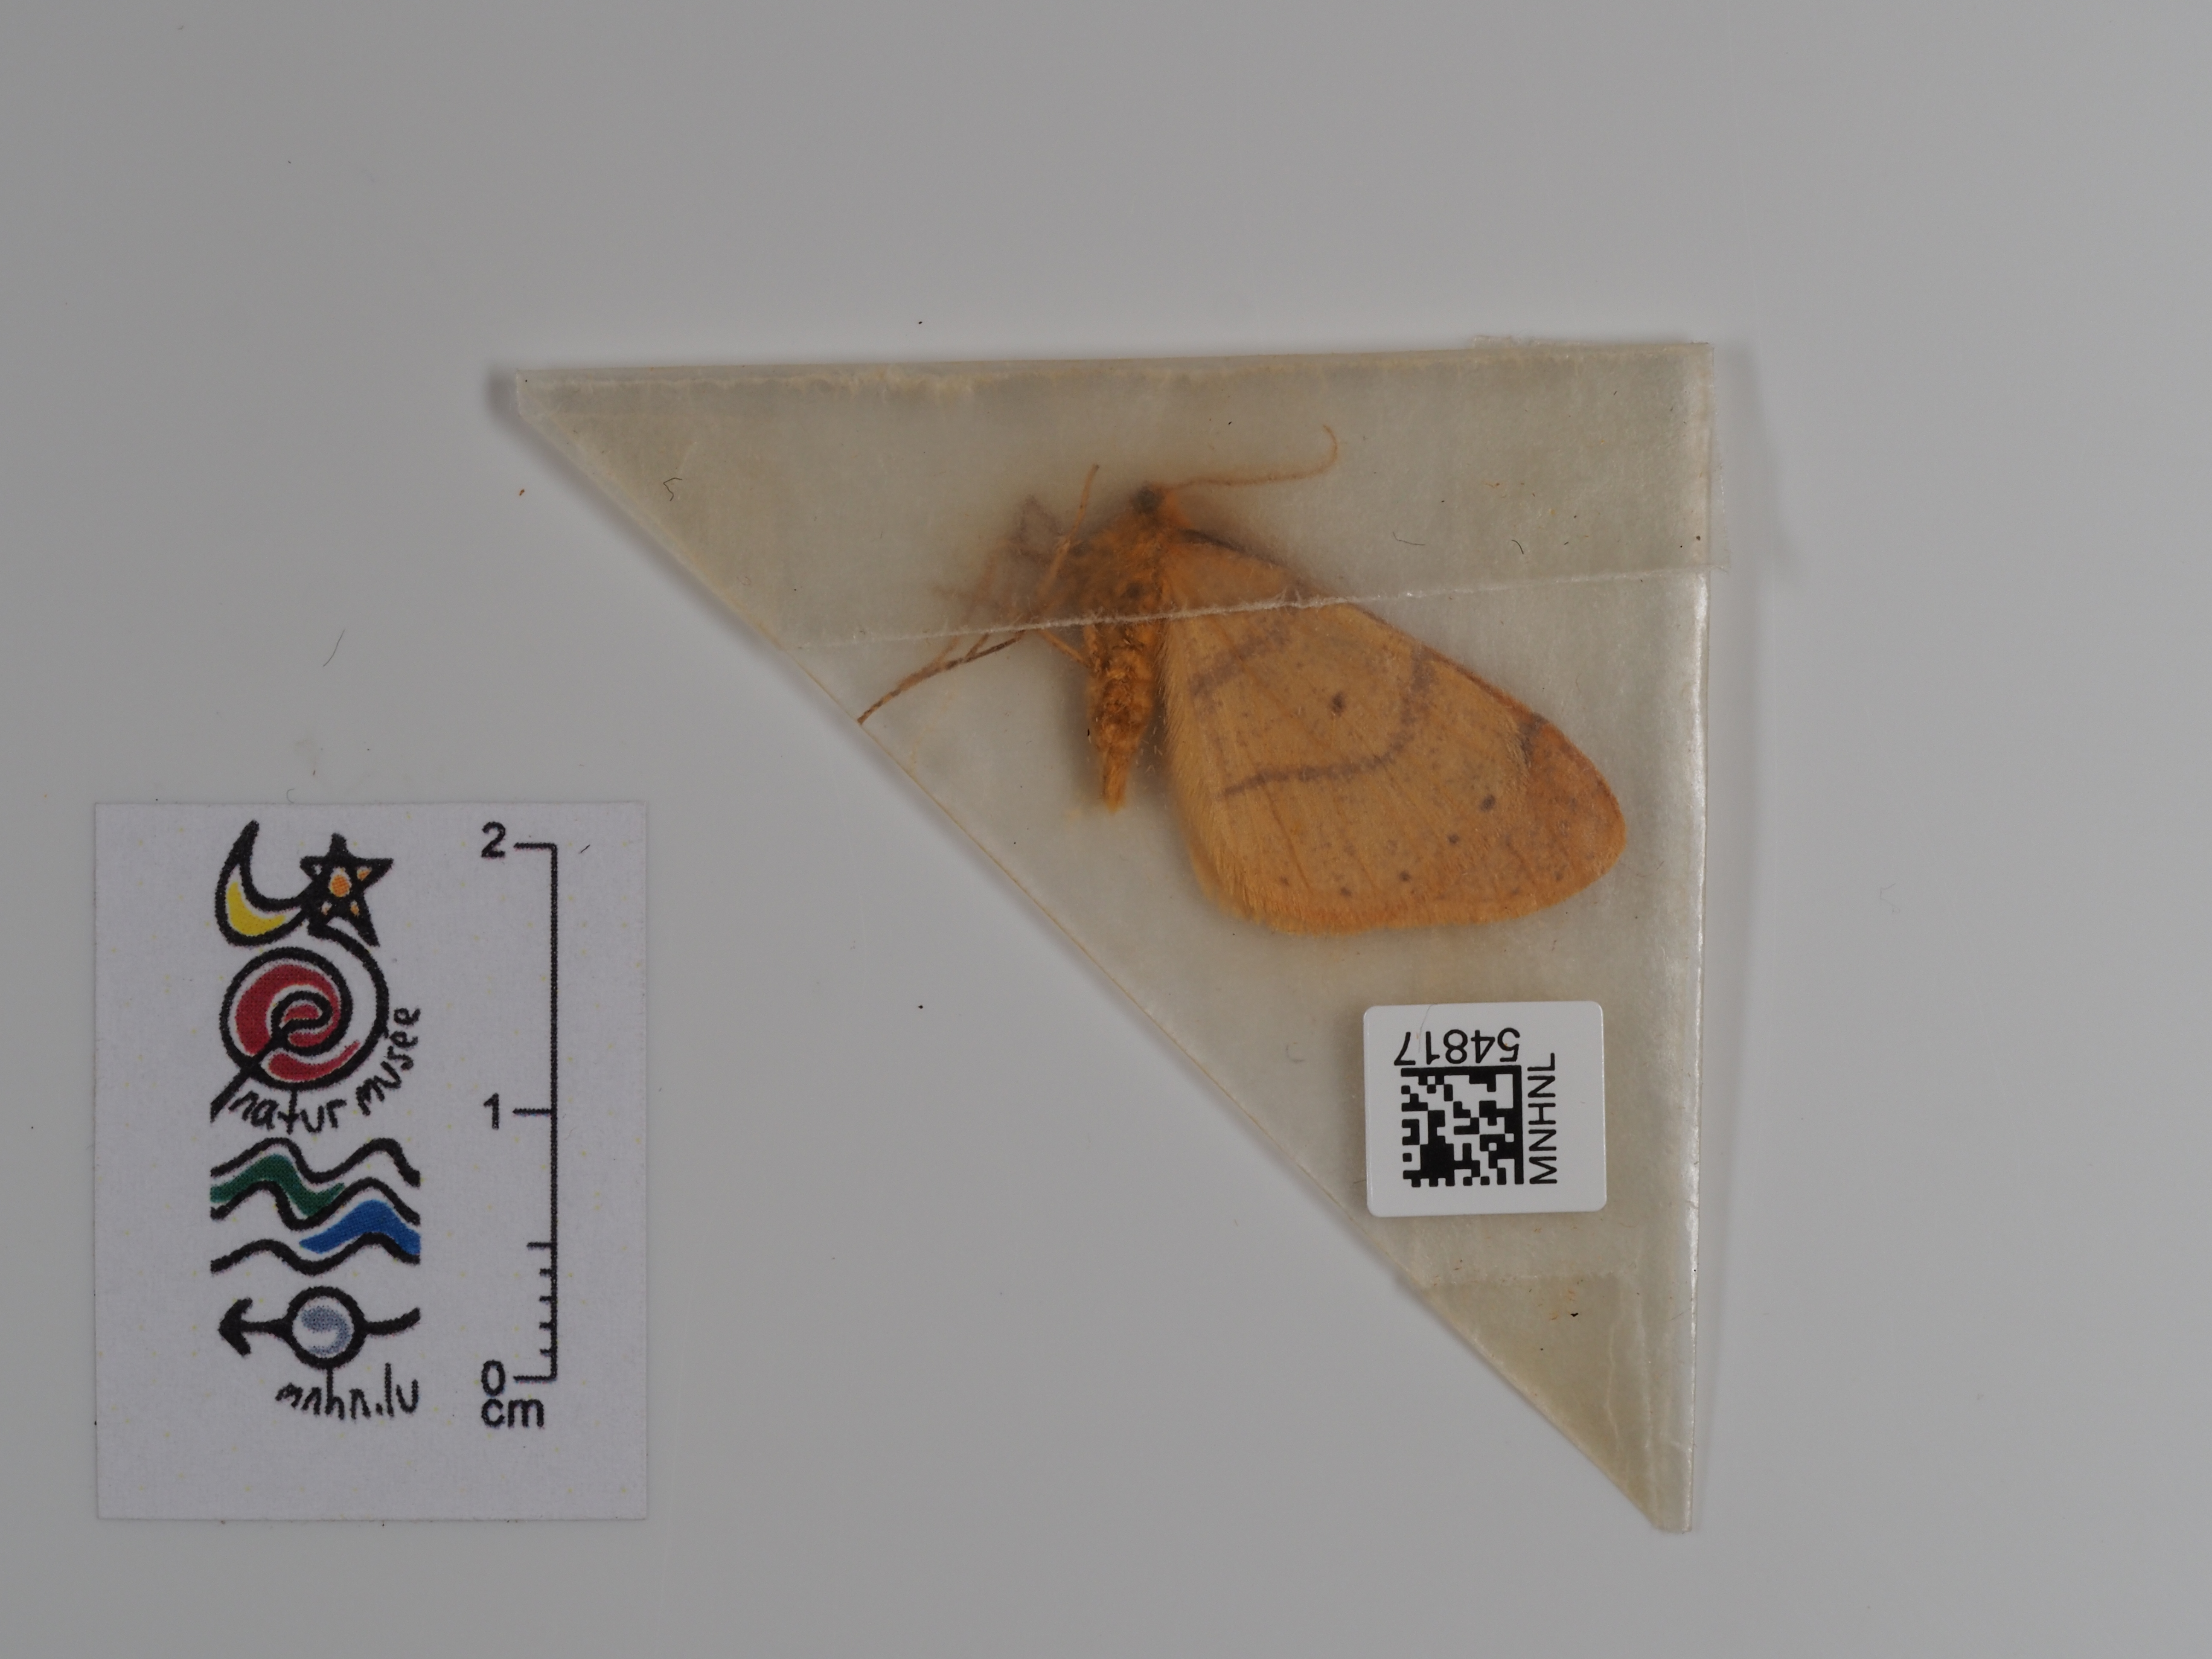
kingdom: Animalia
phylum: Arthropoda
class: Insecta
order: Lepidoptera
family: Geometridae
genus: Agriopis
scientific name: Agriopis aurantiaria
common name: Scarce umber
